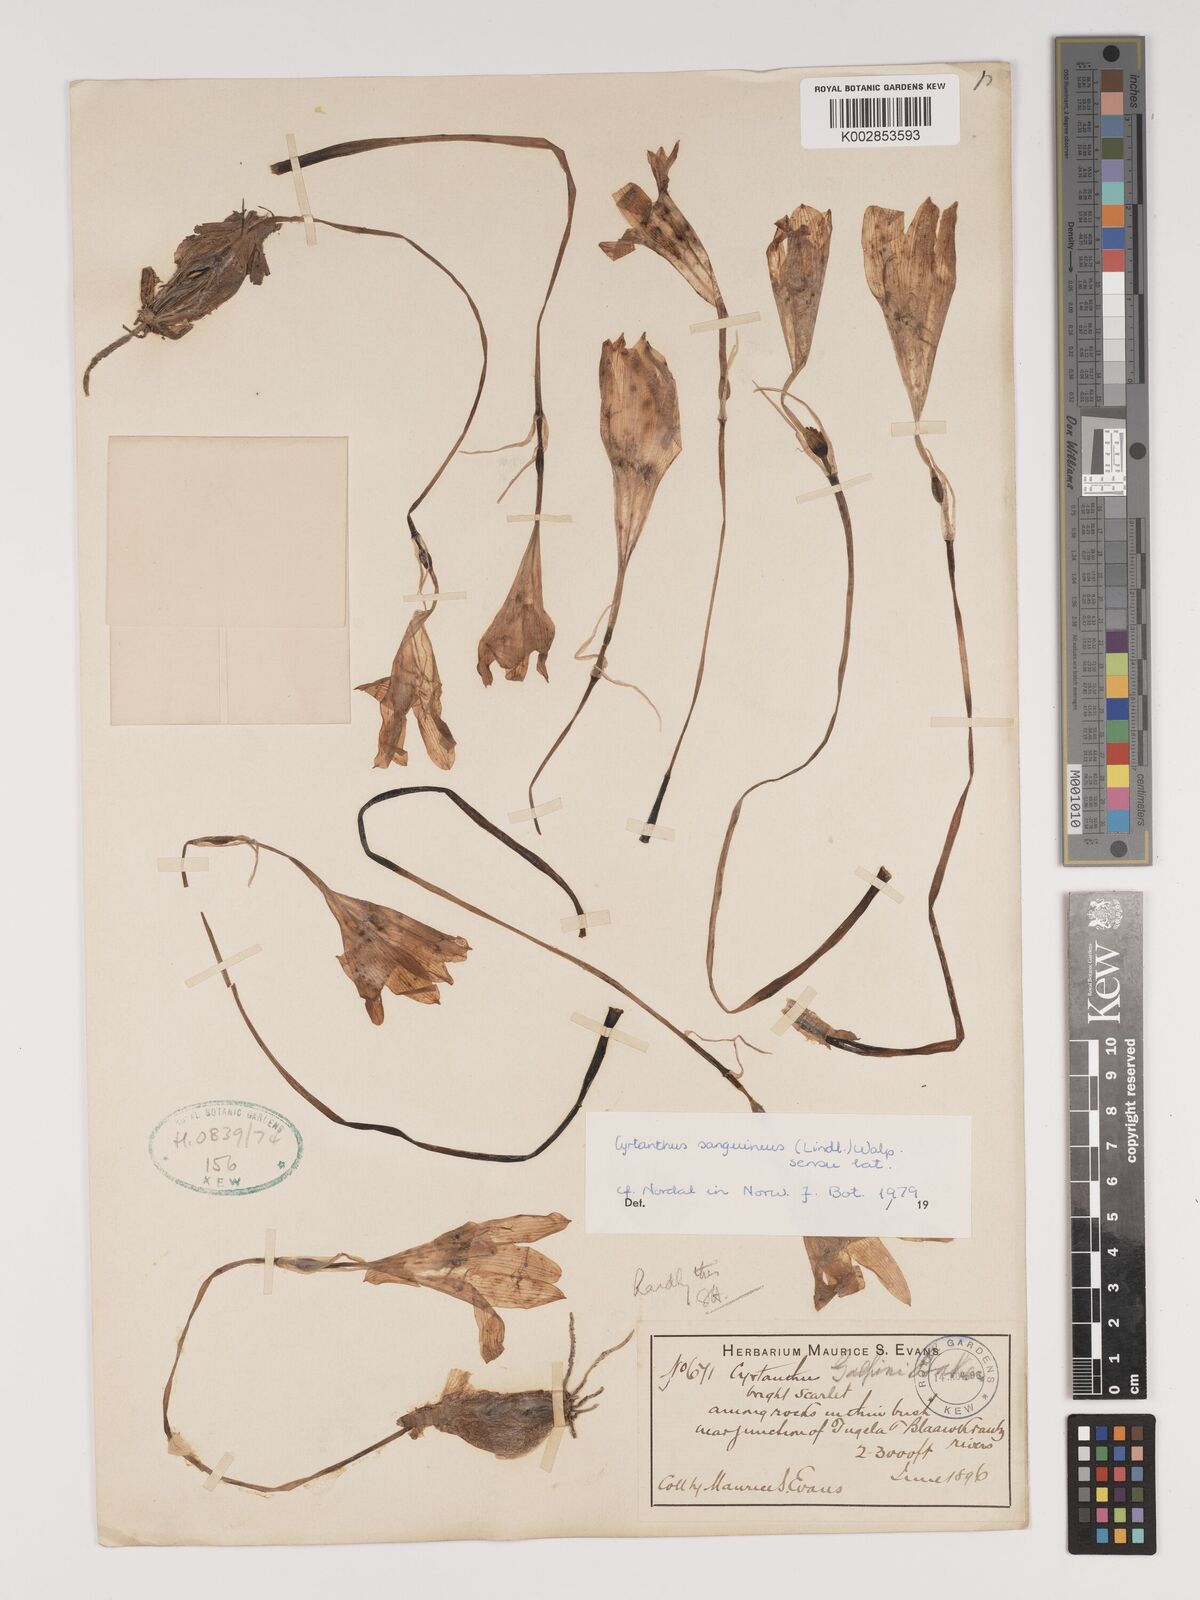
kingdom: Plantae
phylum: Tracheophyta
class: Liliopsida
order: Asparagales
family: Amaryllidaceae
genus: Cyrtanthus
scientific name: Cyrtanthus sanguineus
